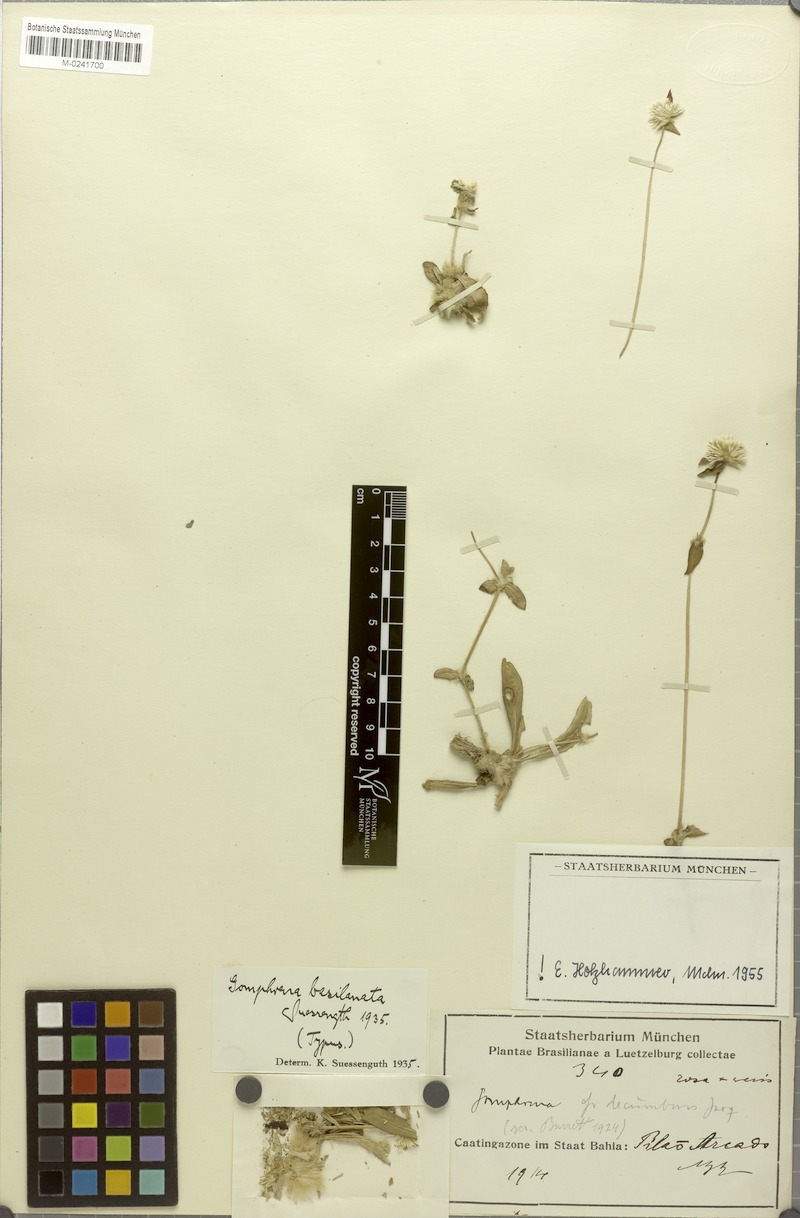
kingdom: Plantae
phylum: Tracheophyta
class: Magnoliopsida
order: Caryophyllales
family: Amaranthaceae
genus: Gomphrena
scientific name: Gomphrena basilanata
